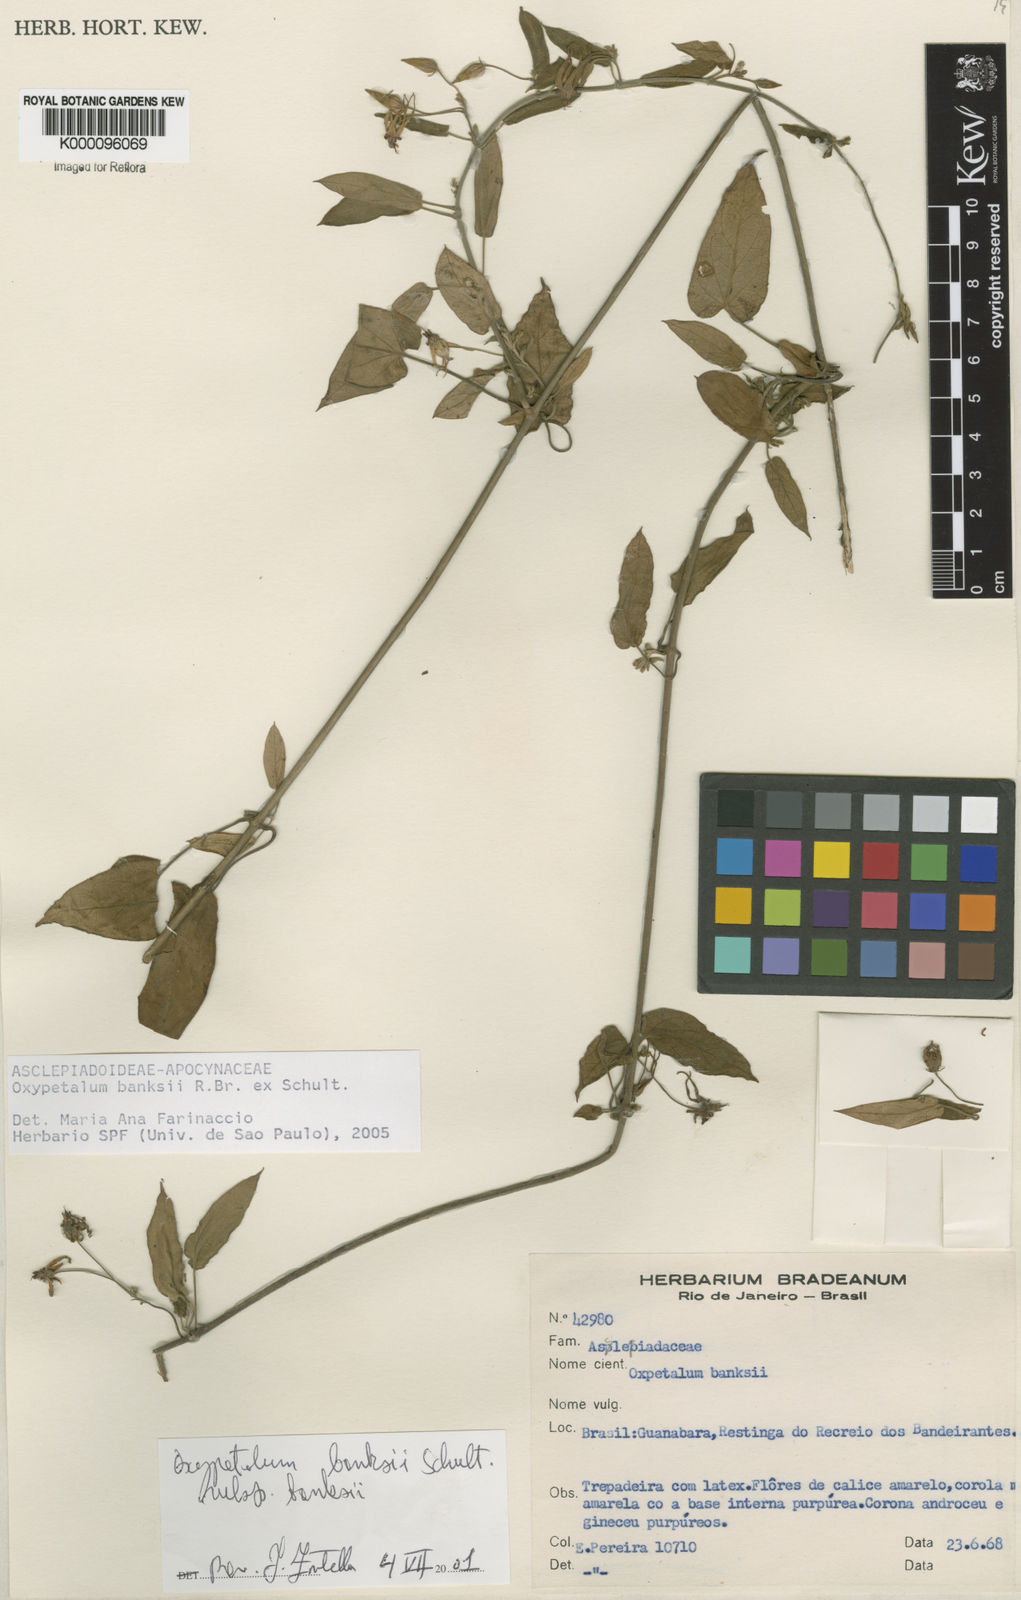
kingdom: Plantae
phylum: Tracheophyta
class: Magnoliopsida
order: Gentianales
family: Apocynaceae
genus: Oxypetalum
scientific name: Oxypetalum banksii
